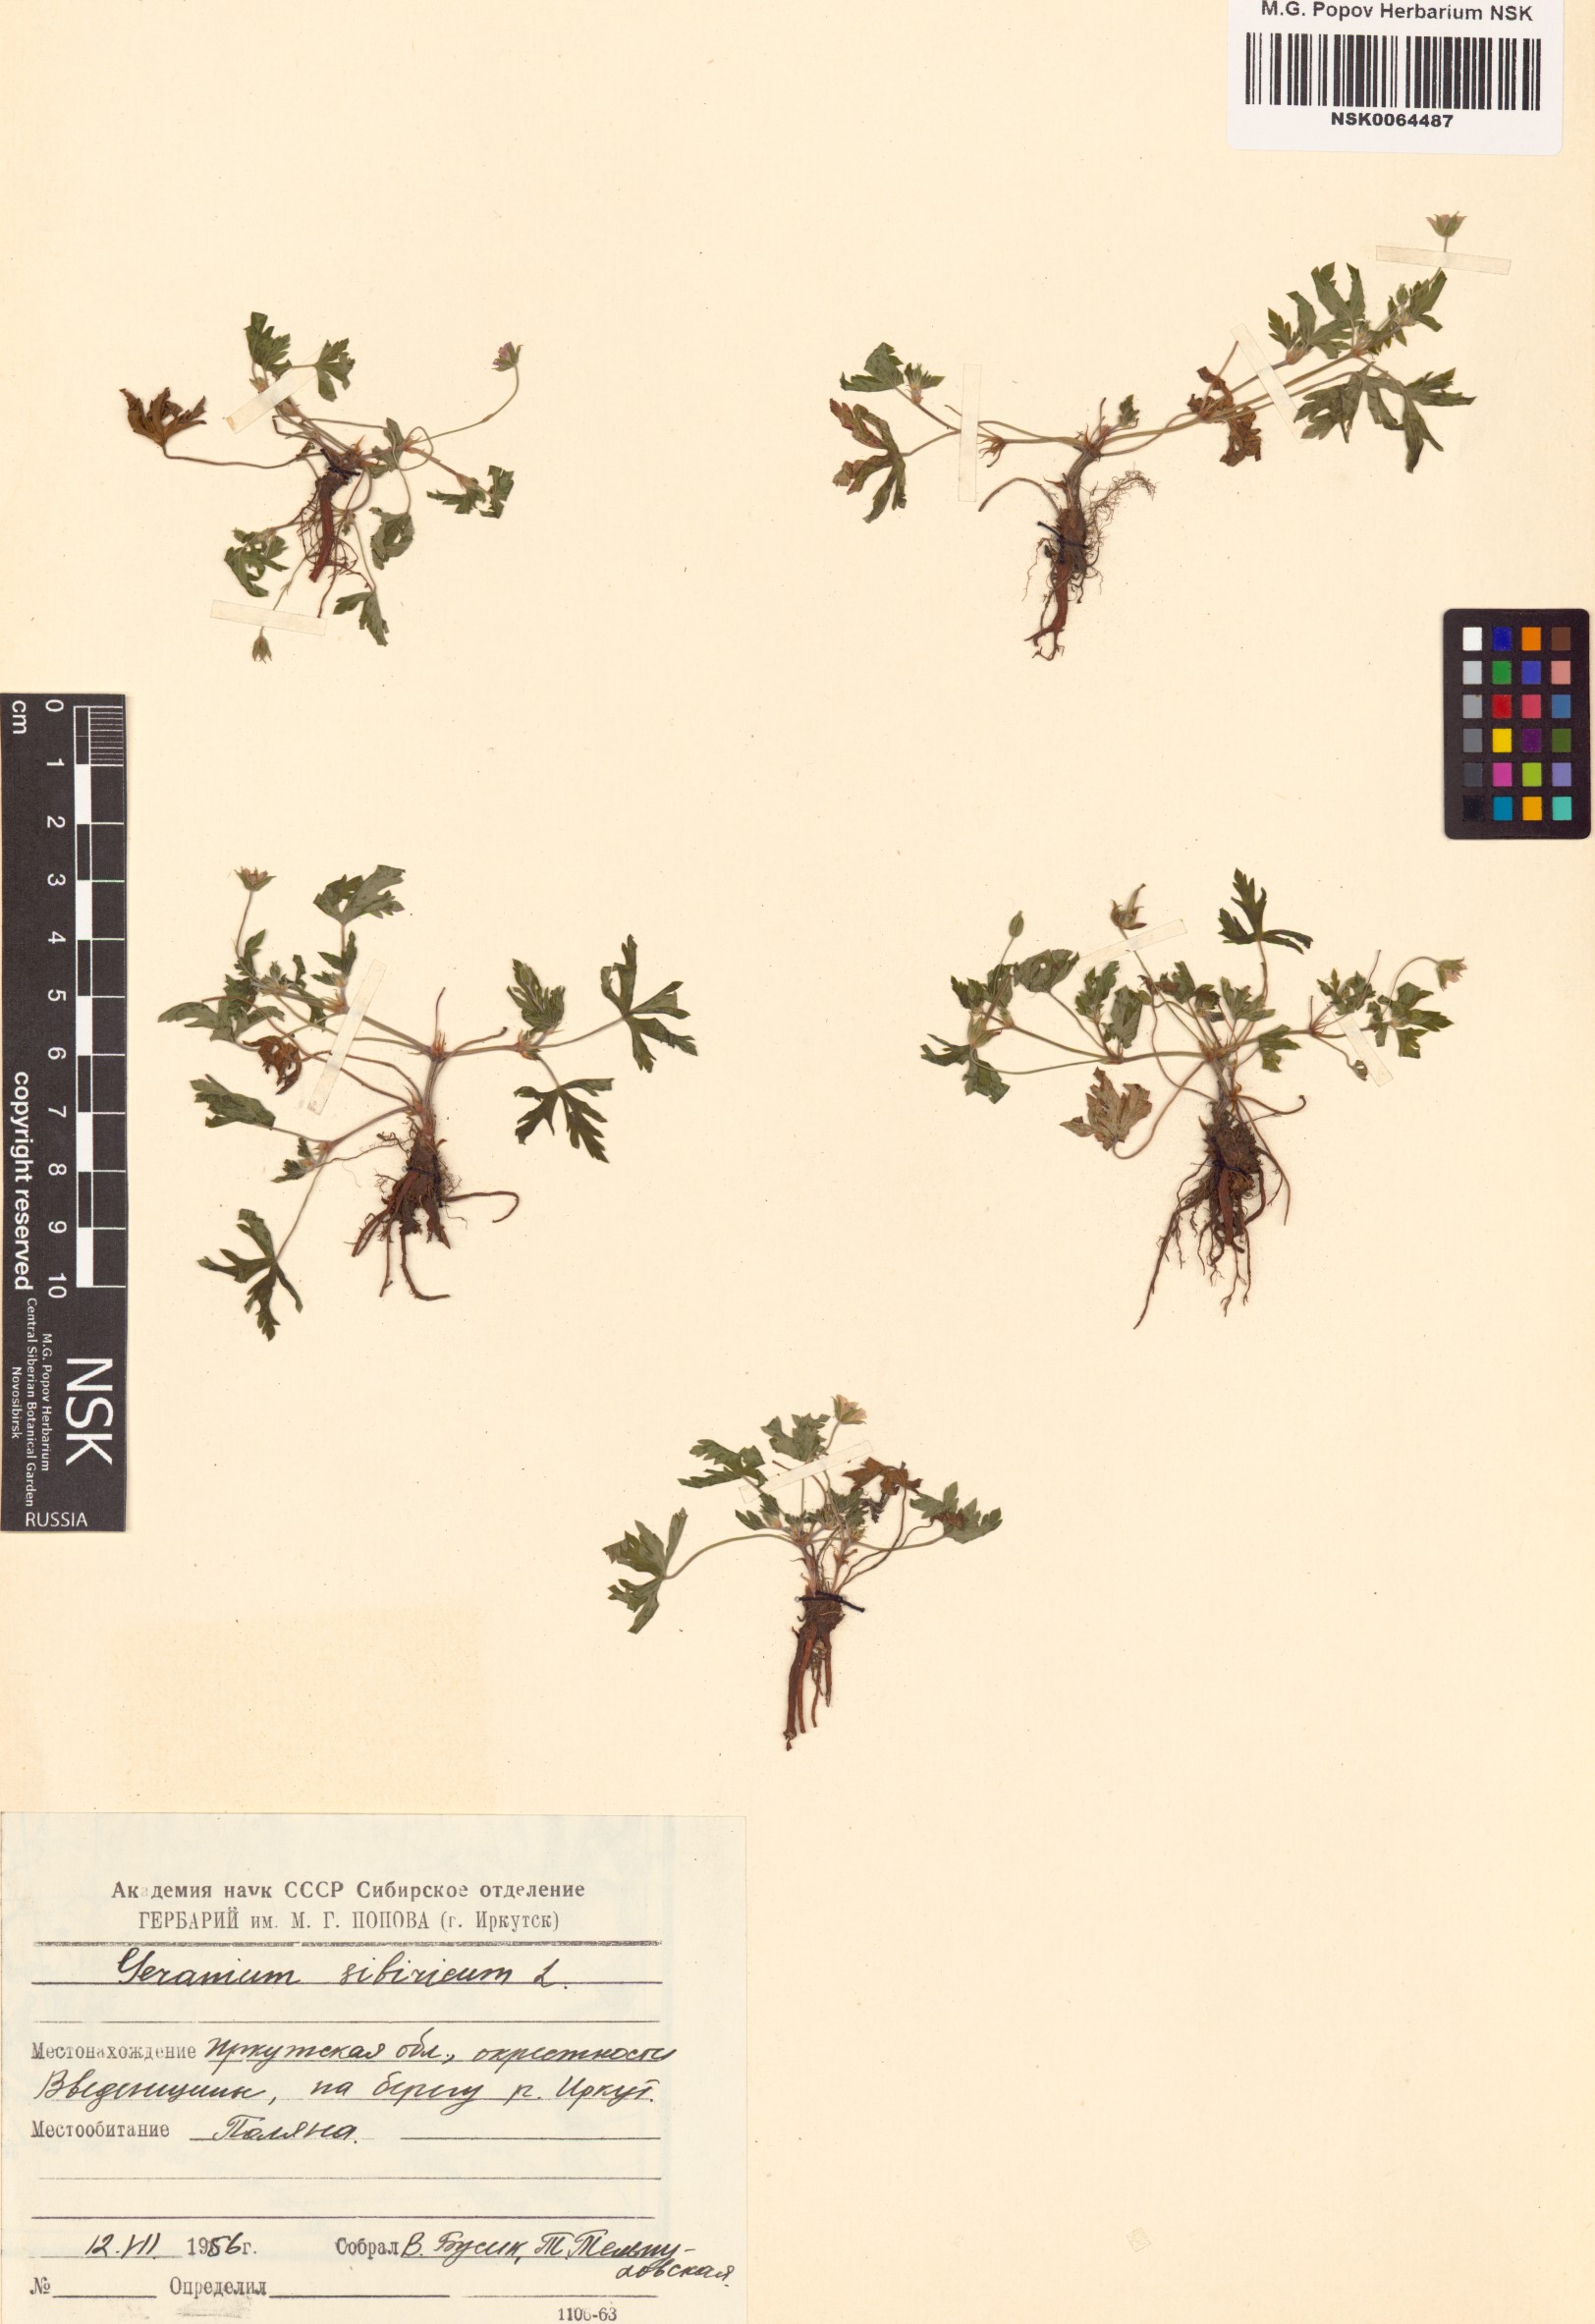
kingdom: Plantae
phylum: Tracheophyta
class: Magnoliopsida
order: Geraniales
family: Geraniaceae
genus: Geranium
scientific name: Geranium sibiricum
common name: Siberian crane's-bill
